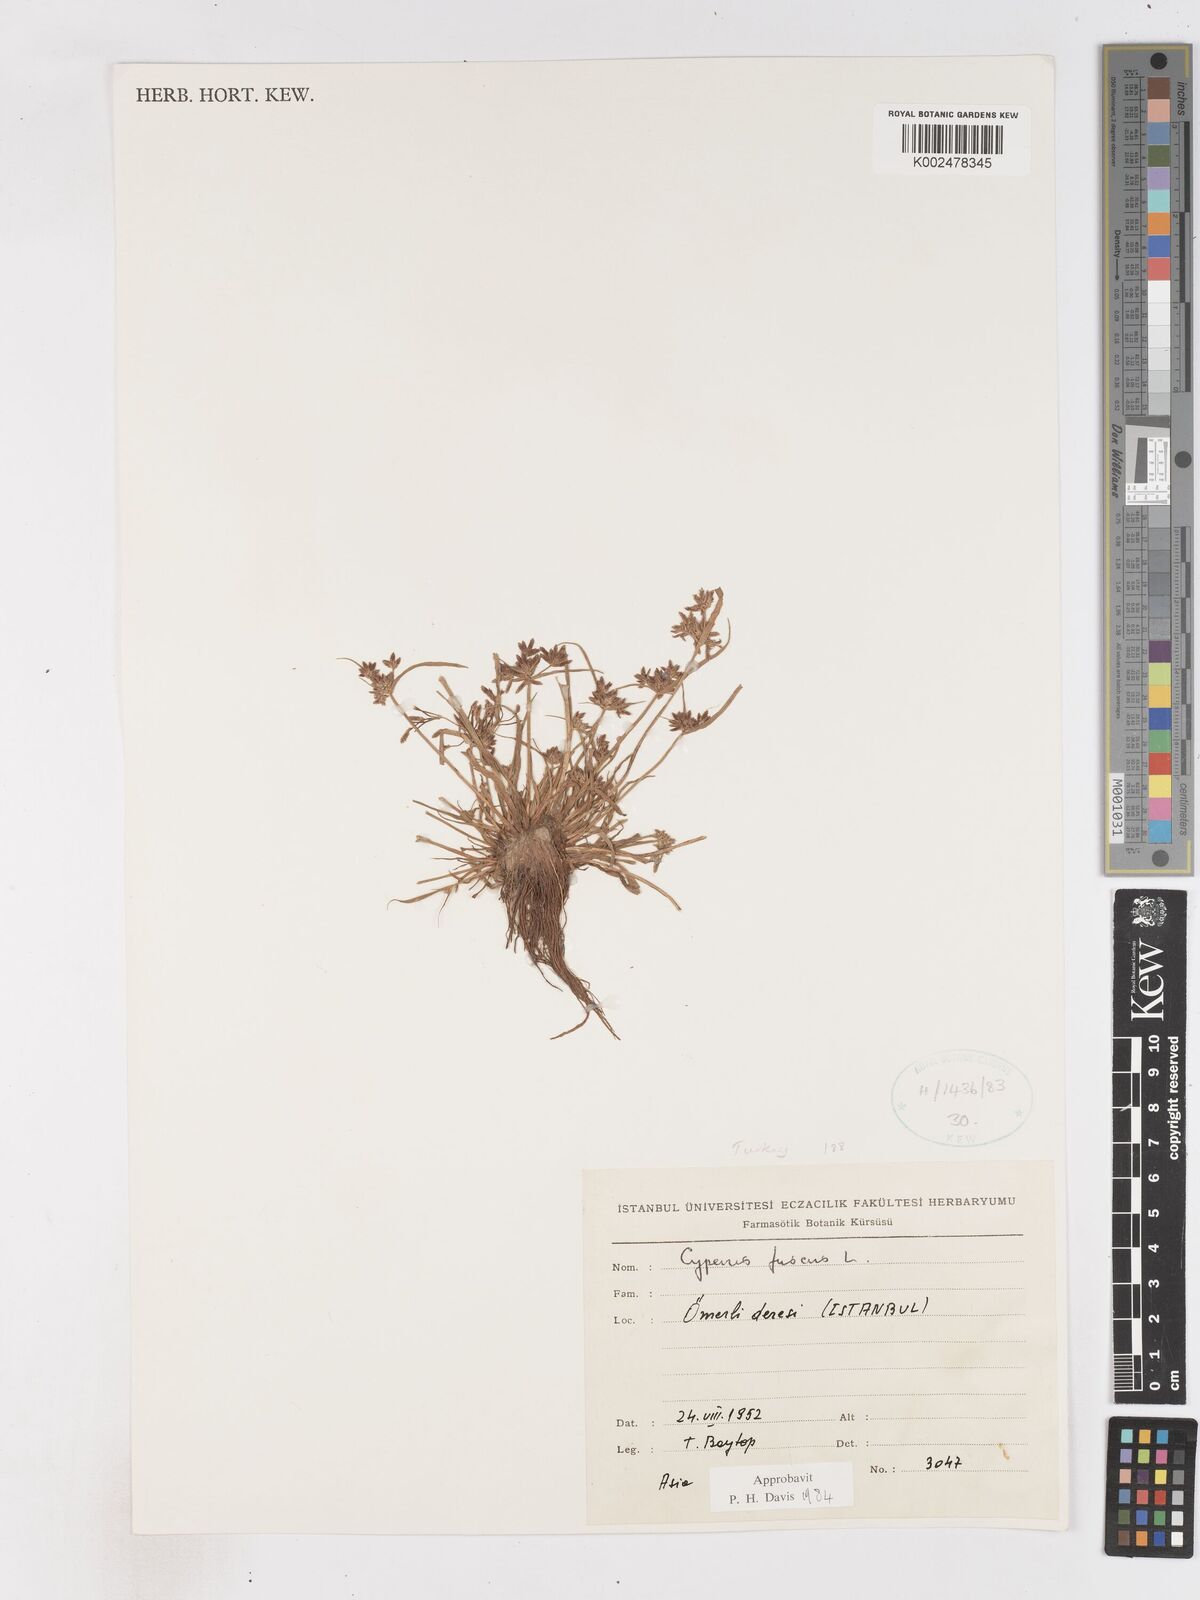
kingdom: Plantae
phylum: Tracheophyta
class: Liliopsida
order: Poales
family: Cyperaceae
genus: Cyperus
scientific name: Cyperus fuscus
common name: Brown galingale
